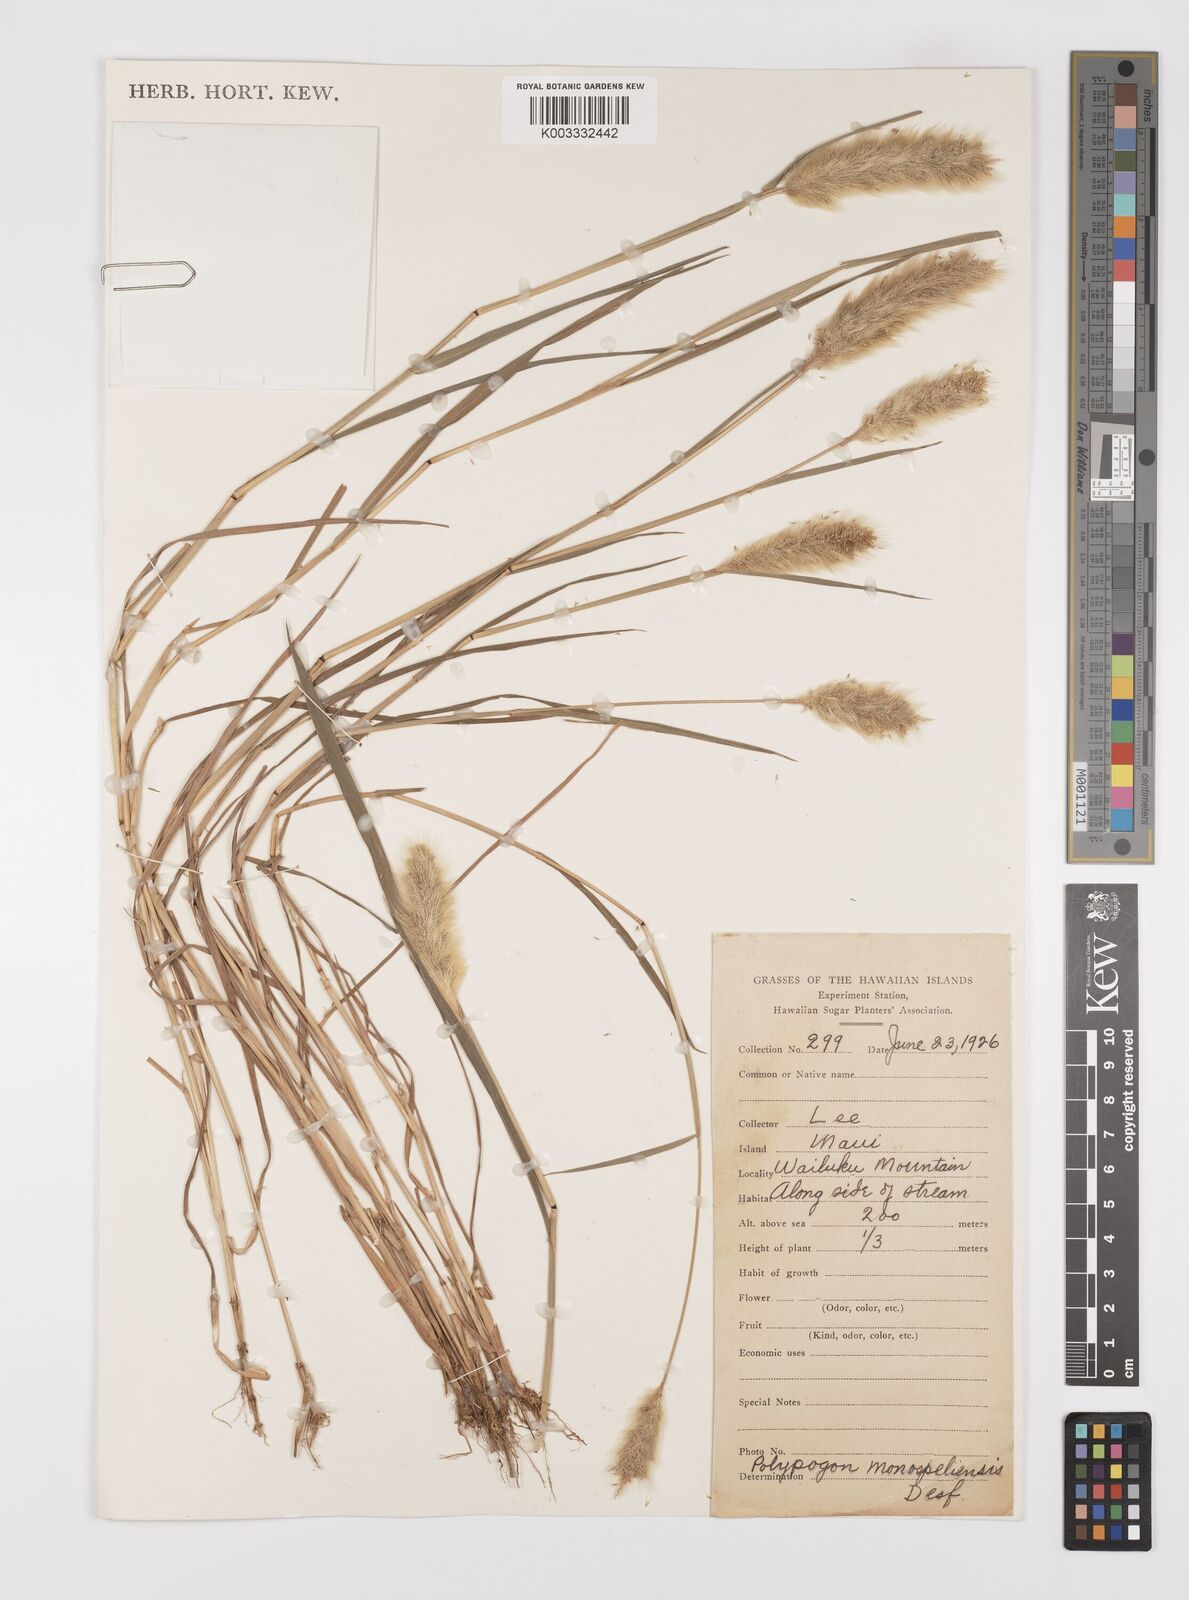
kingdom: Plantae
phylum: Tracheophyta
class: Liliopsida
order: Poales
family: Poaceae
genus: Polypogon
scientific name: Polypogon monspeliensis
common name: Annual rabbitsfoot grass
